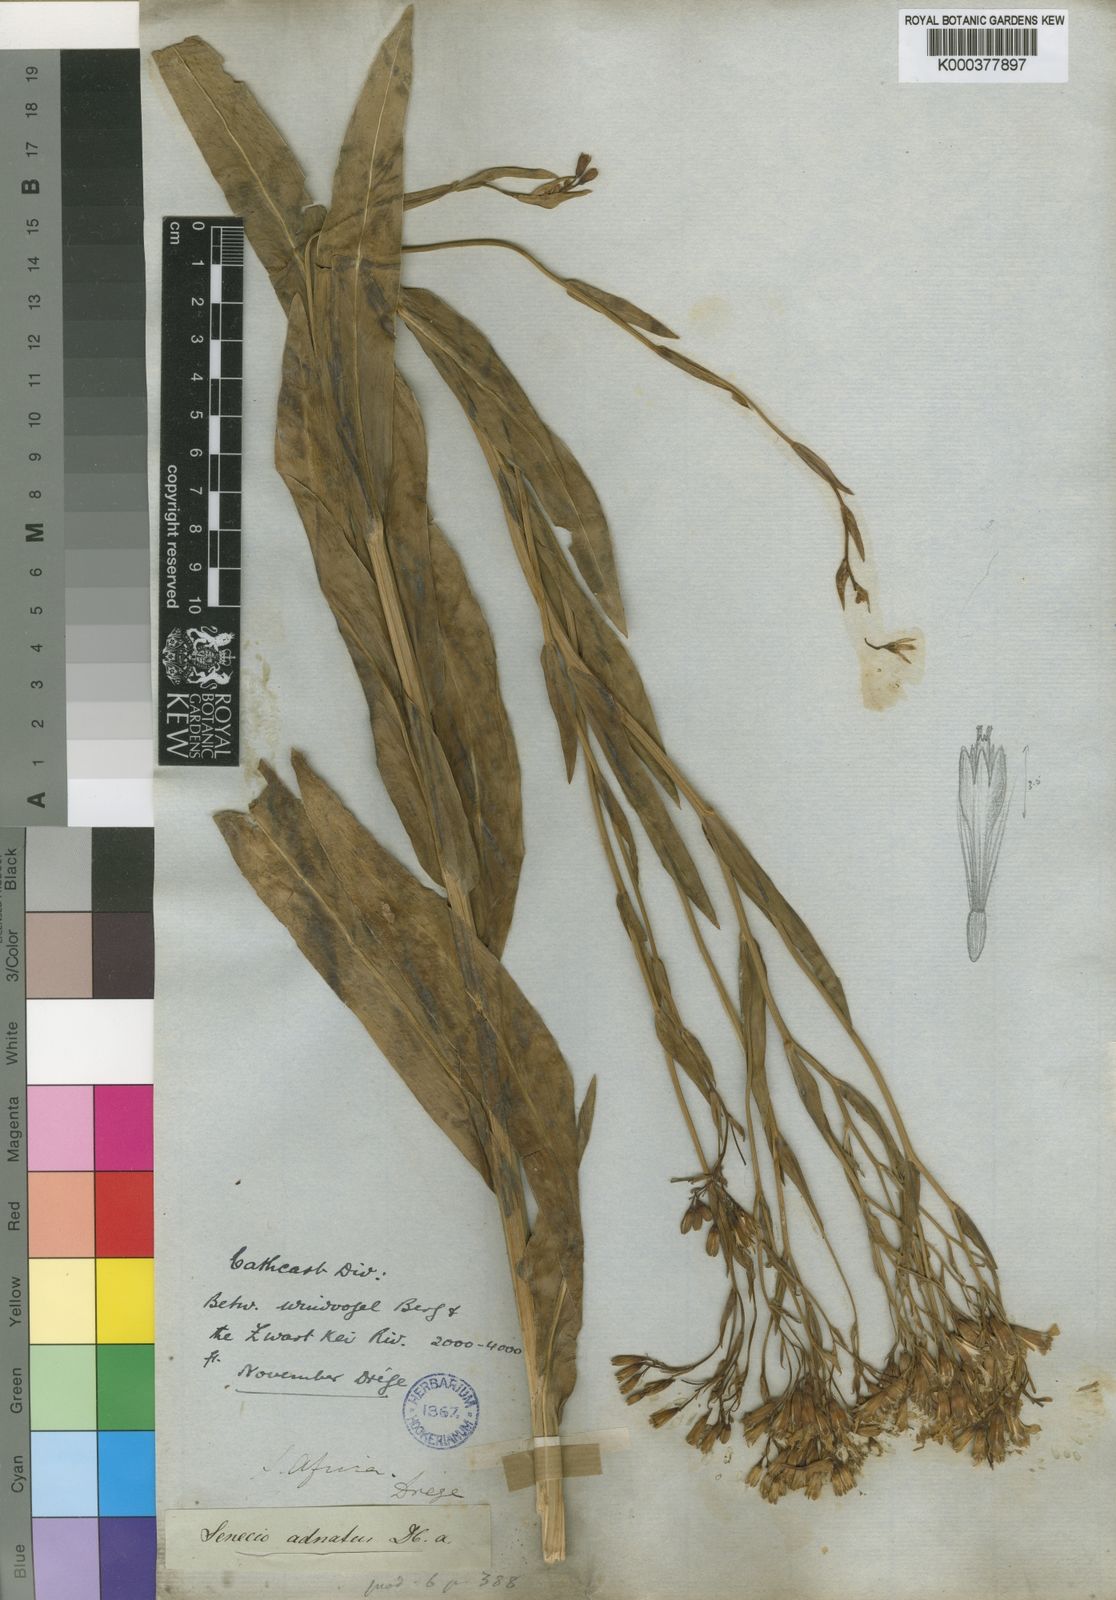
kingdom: Plantae
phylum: Tracheophyta
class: Magnoliopsida
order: Asterales
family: Asteraceae
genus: Senecio
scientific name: Senecio adnatus
